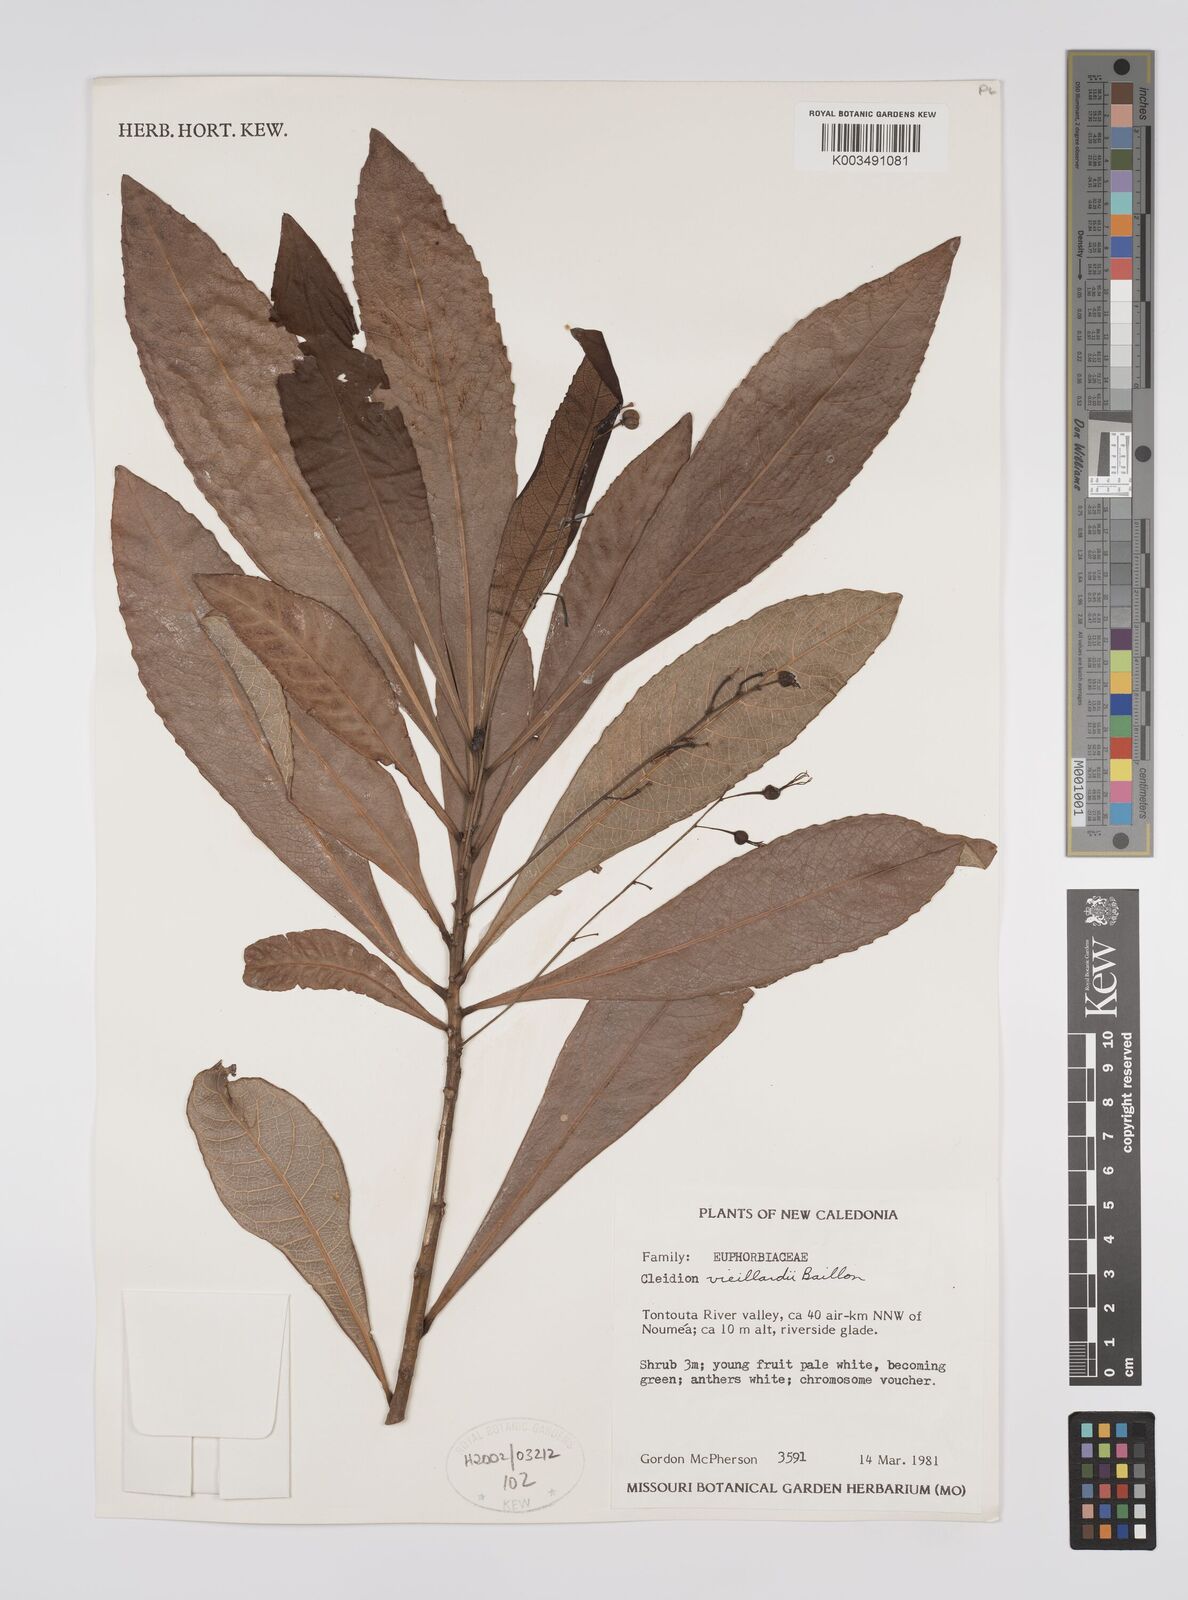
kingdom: Plantae
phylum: Tracheophyta
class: Magnoliopsida
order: Malpighiales
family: Euphorbiaceae
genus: Cleidion
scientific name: Cleidion vieillardii
